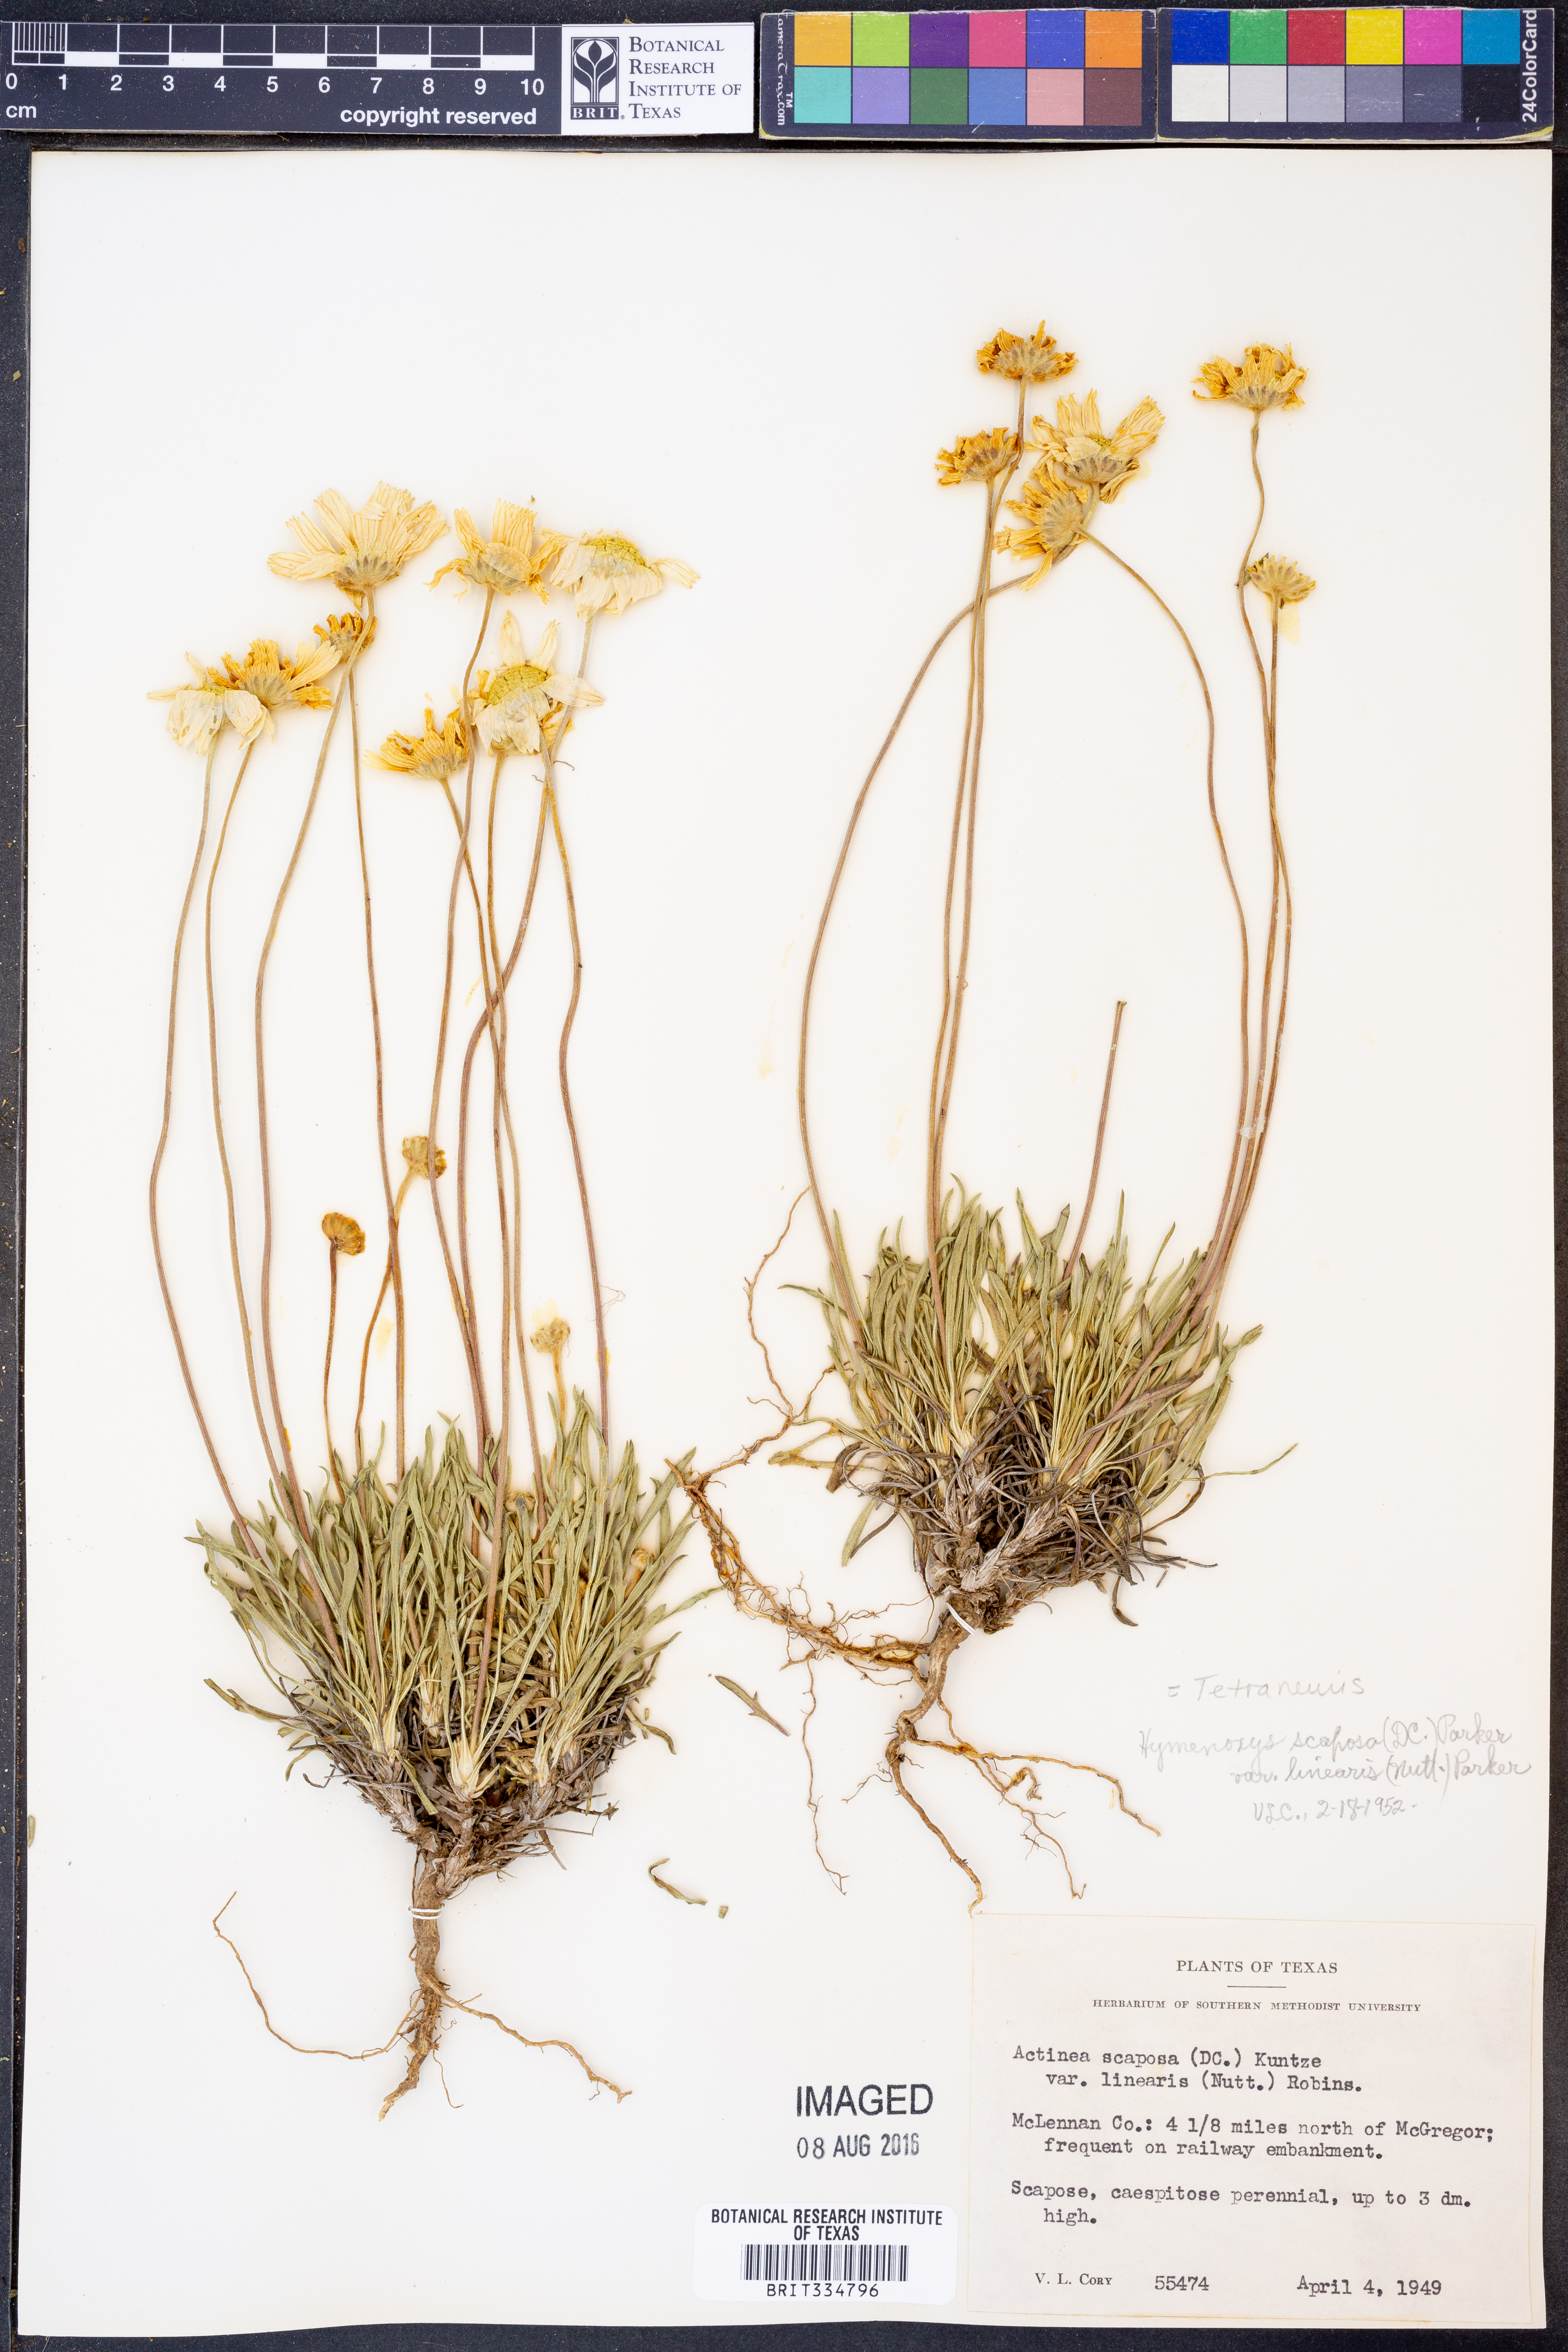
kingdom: Plantae
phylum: Tracheophyta
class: Magnoliopsida
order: Asterales
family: Asteraceae
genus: Tetraneuris
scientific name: Tetraneuris scaposa
